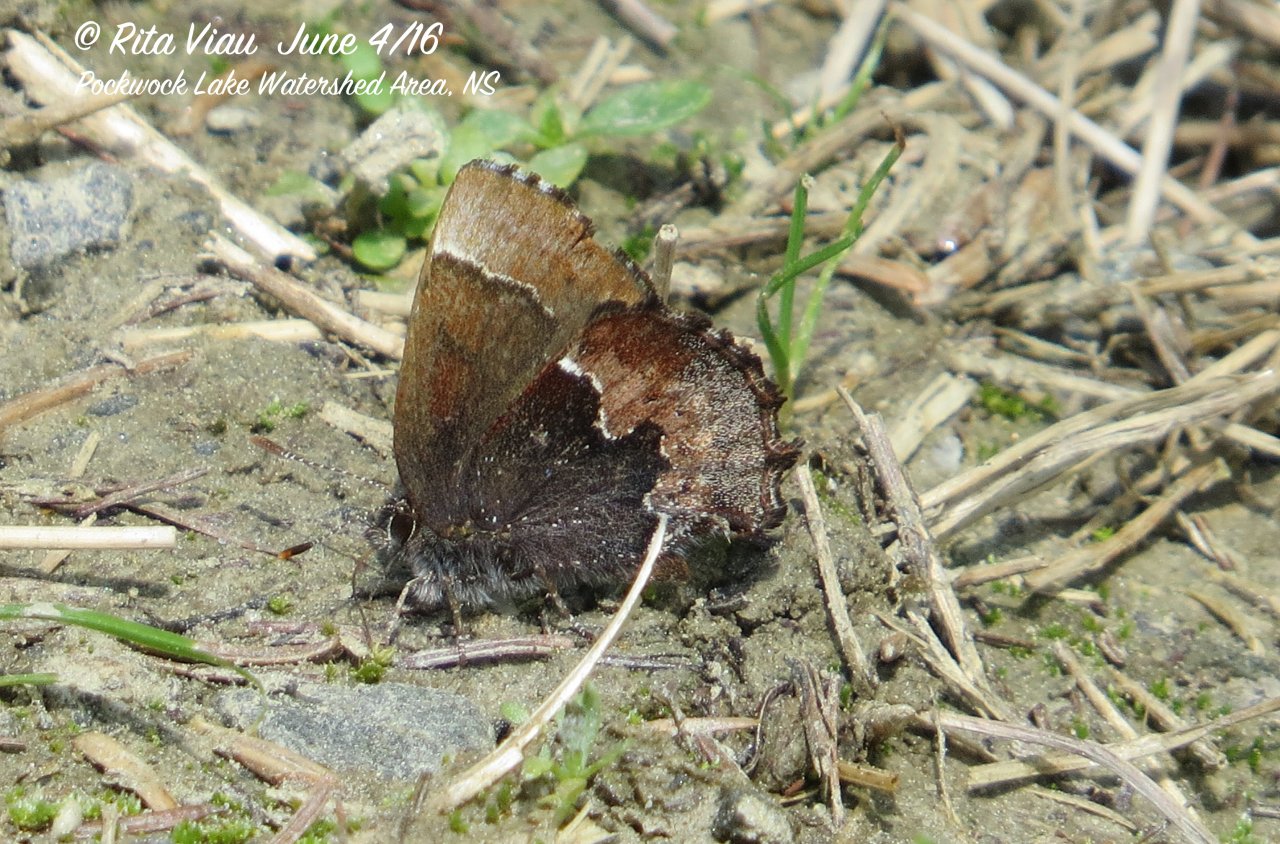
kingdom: Animalia
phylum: Arthropoda
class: Insecta
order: Lepidoptera
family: Lycaenidae
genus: Incisalia
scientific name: Incisalia henrici
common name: Henry's Elfin
